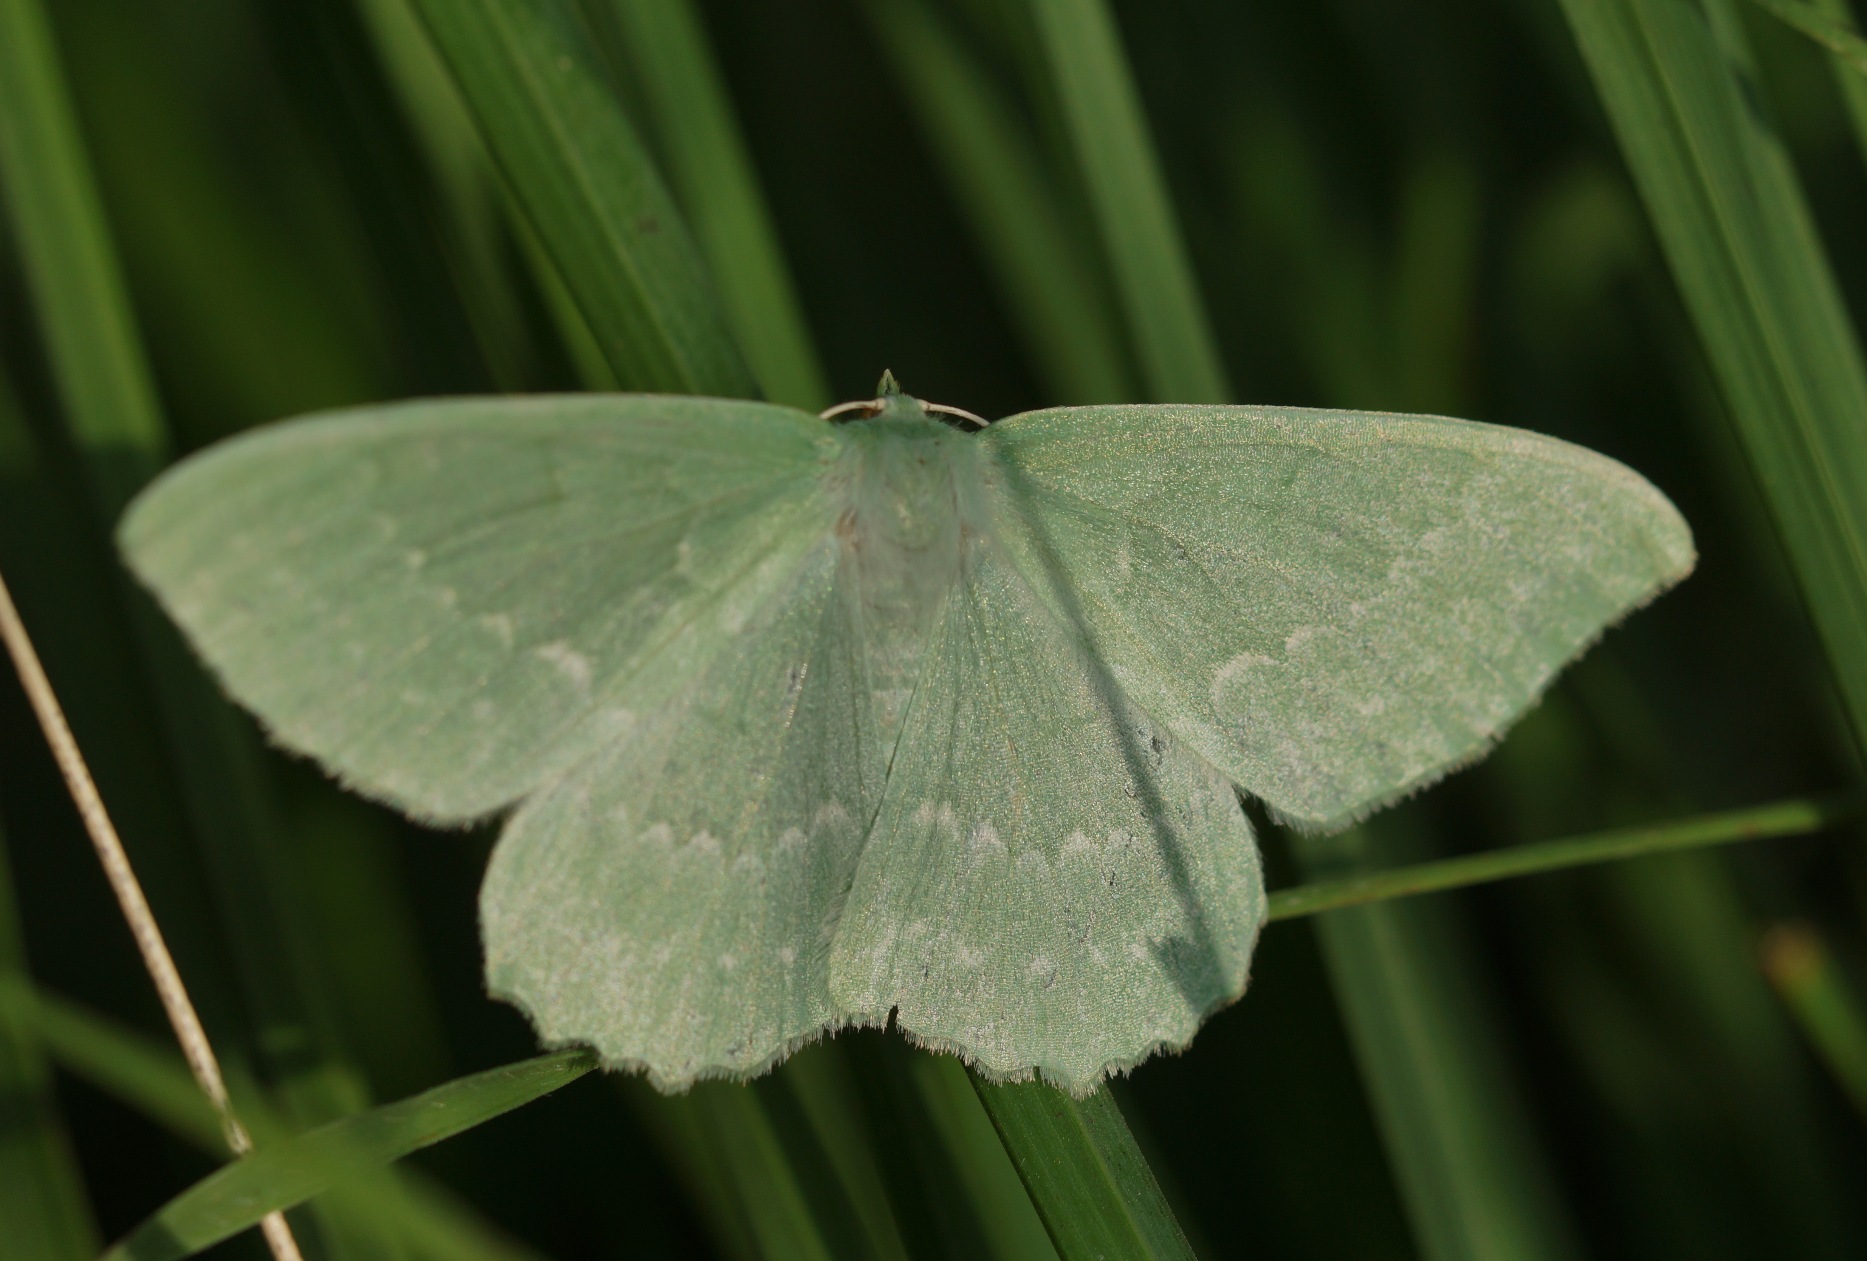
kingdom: Animalia
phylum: Arthropoda
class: Insecta
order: Lepidoptera
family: Geometridae
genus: Geometra
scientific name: Geometra papilionaria
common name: Grøn birkemåler
